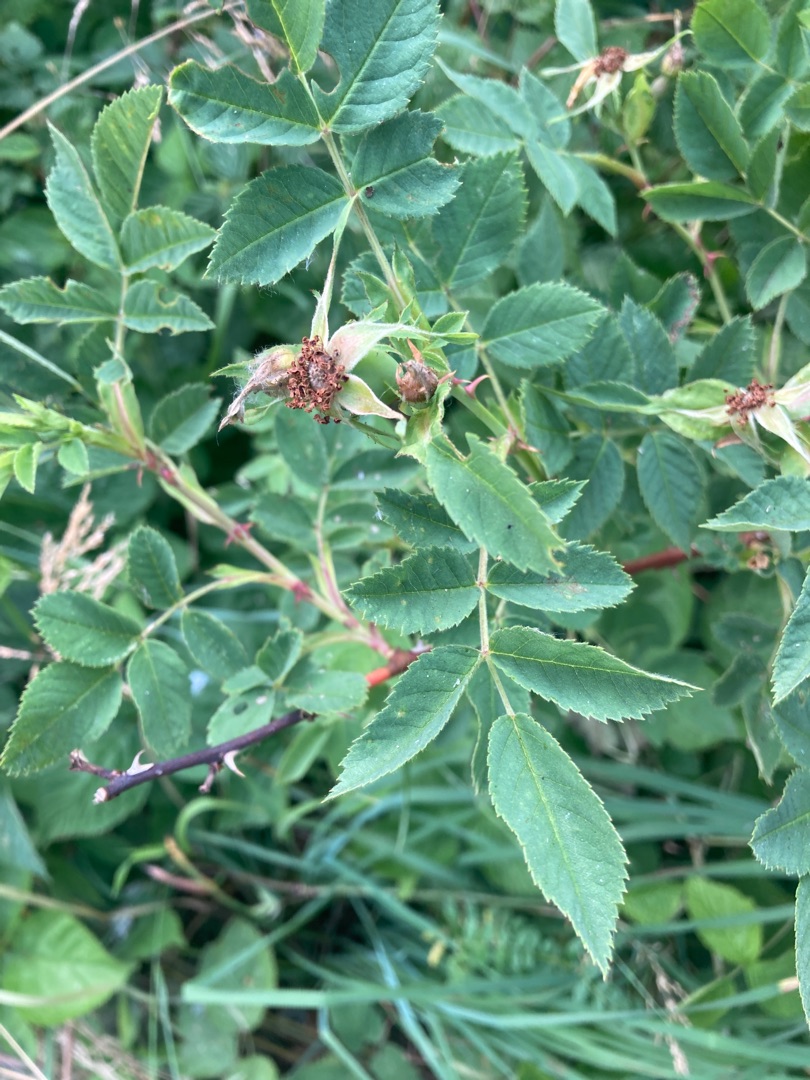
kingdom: Plantae
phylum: Tracheophyta
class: Magnoliopsida
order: Rosales
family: Rosaceae
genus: Rosa
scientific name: Rosa balsamica
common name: Rubladet rose
